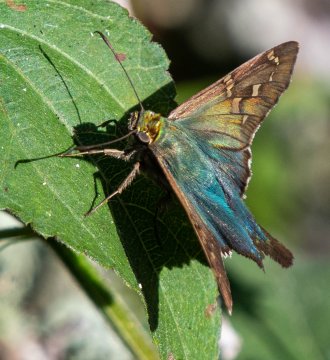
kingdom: Animalia
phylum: Arthropoda
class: Insecta
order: Lepidoptera
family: Hesperiidae
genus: Urbanus
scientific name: Urbanus proteus
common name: Long-tailed Skipper
